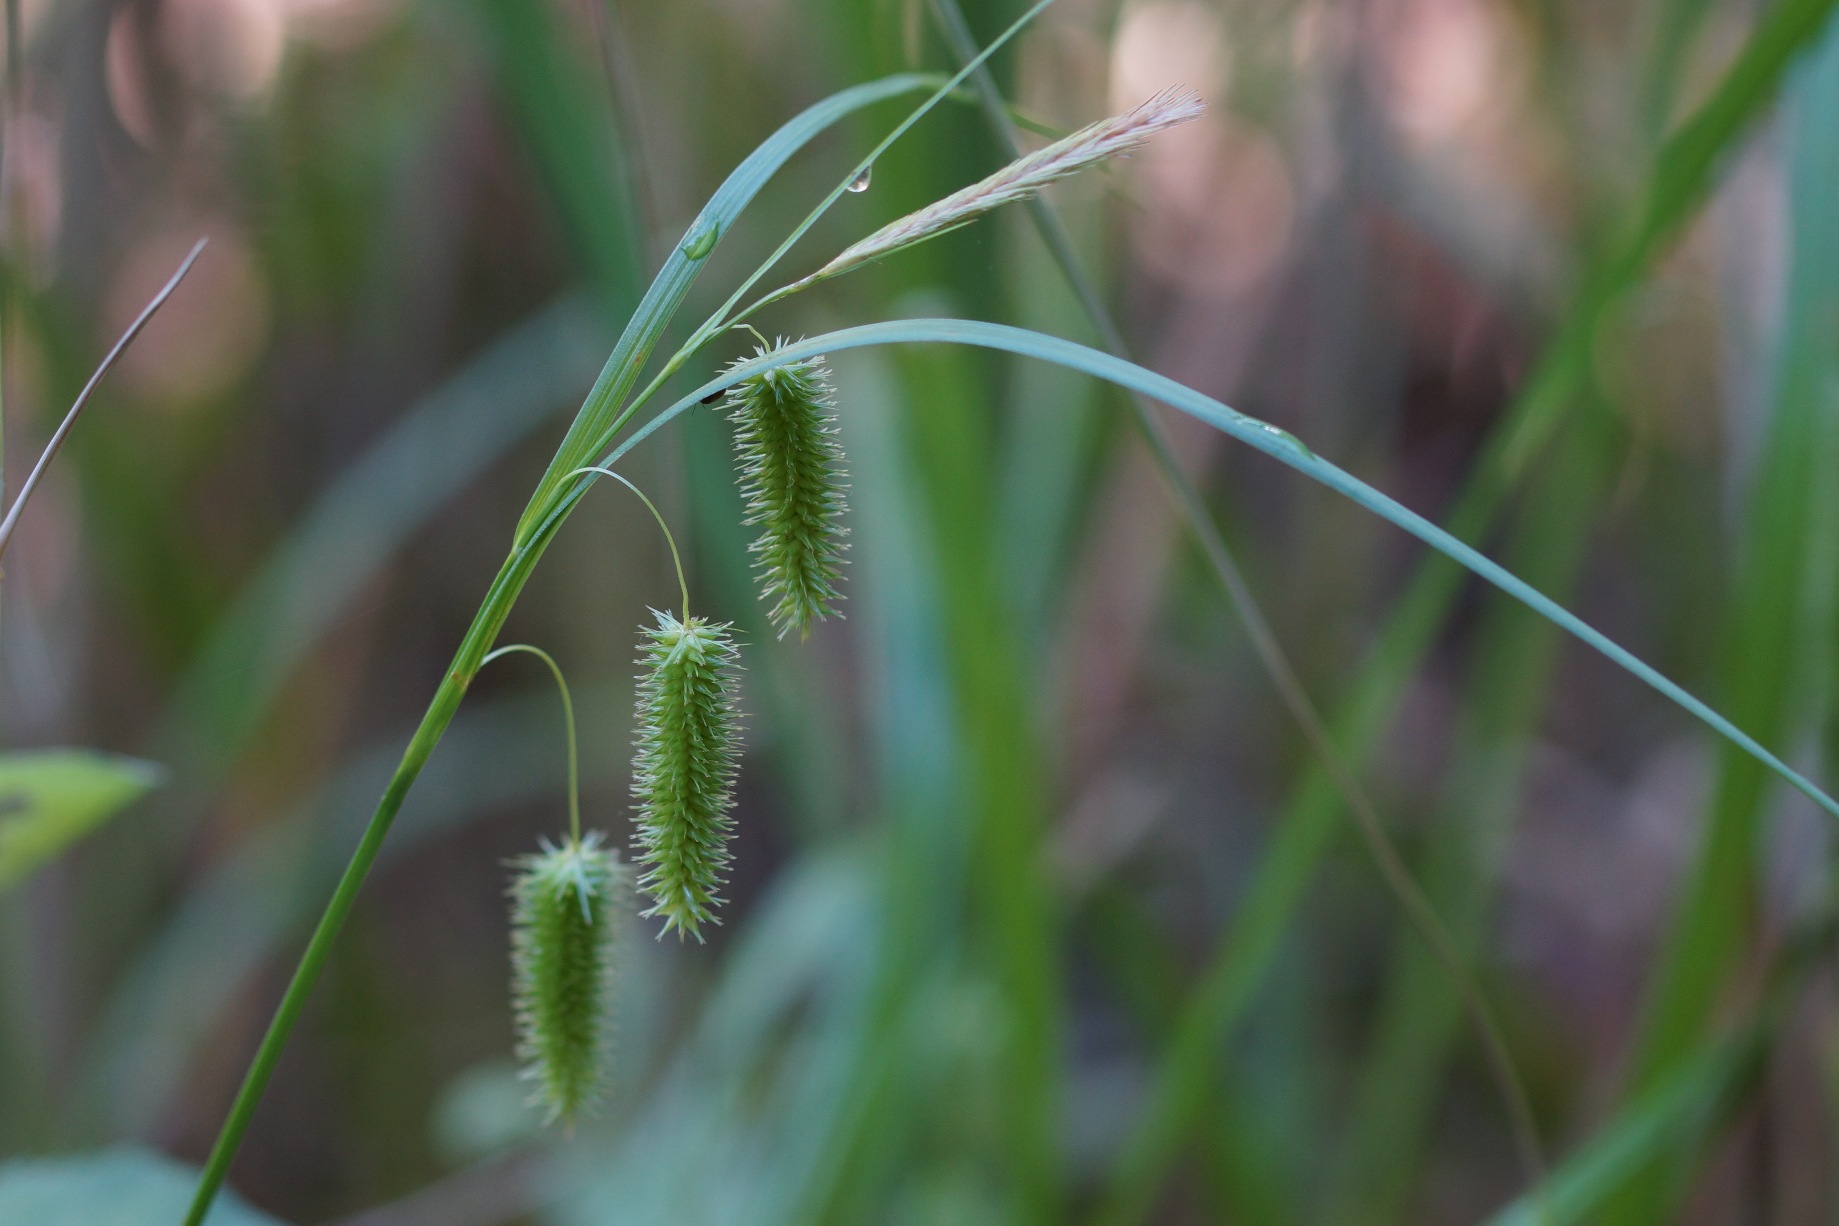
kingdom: Plantae
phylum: Tracheophyta
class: Liliopsida
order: Poales
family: Cyperaceae
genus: Carex
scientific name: Carex pseudocyperus
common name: Knippe-star
